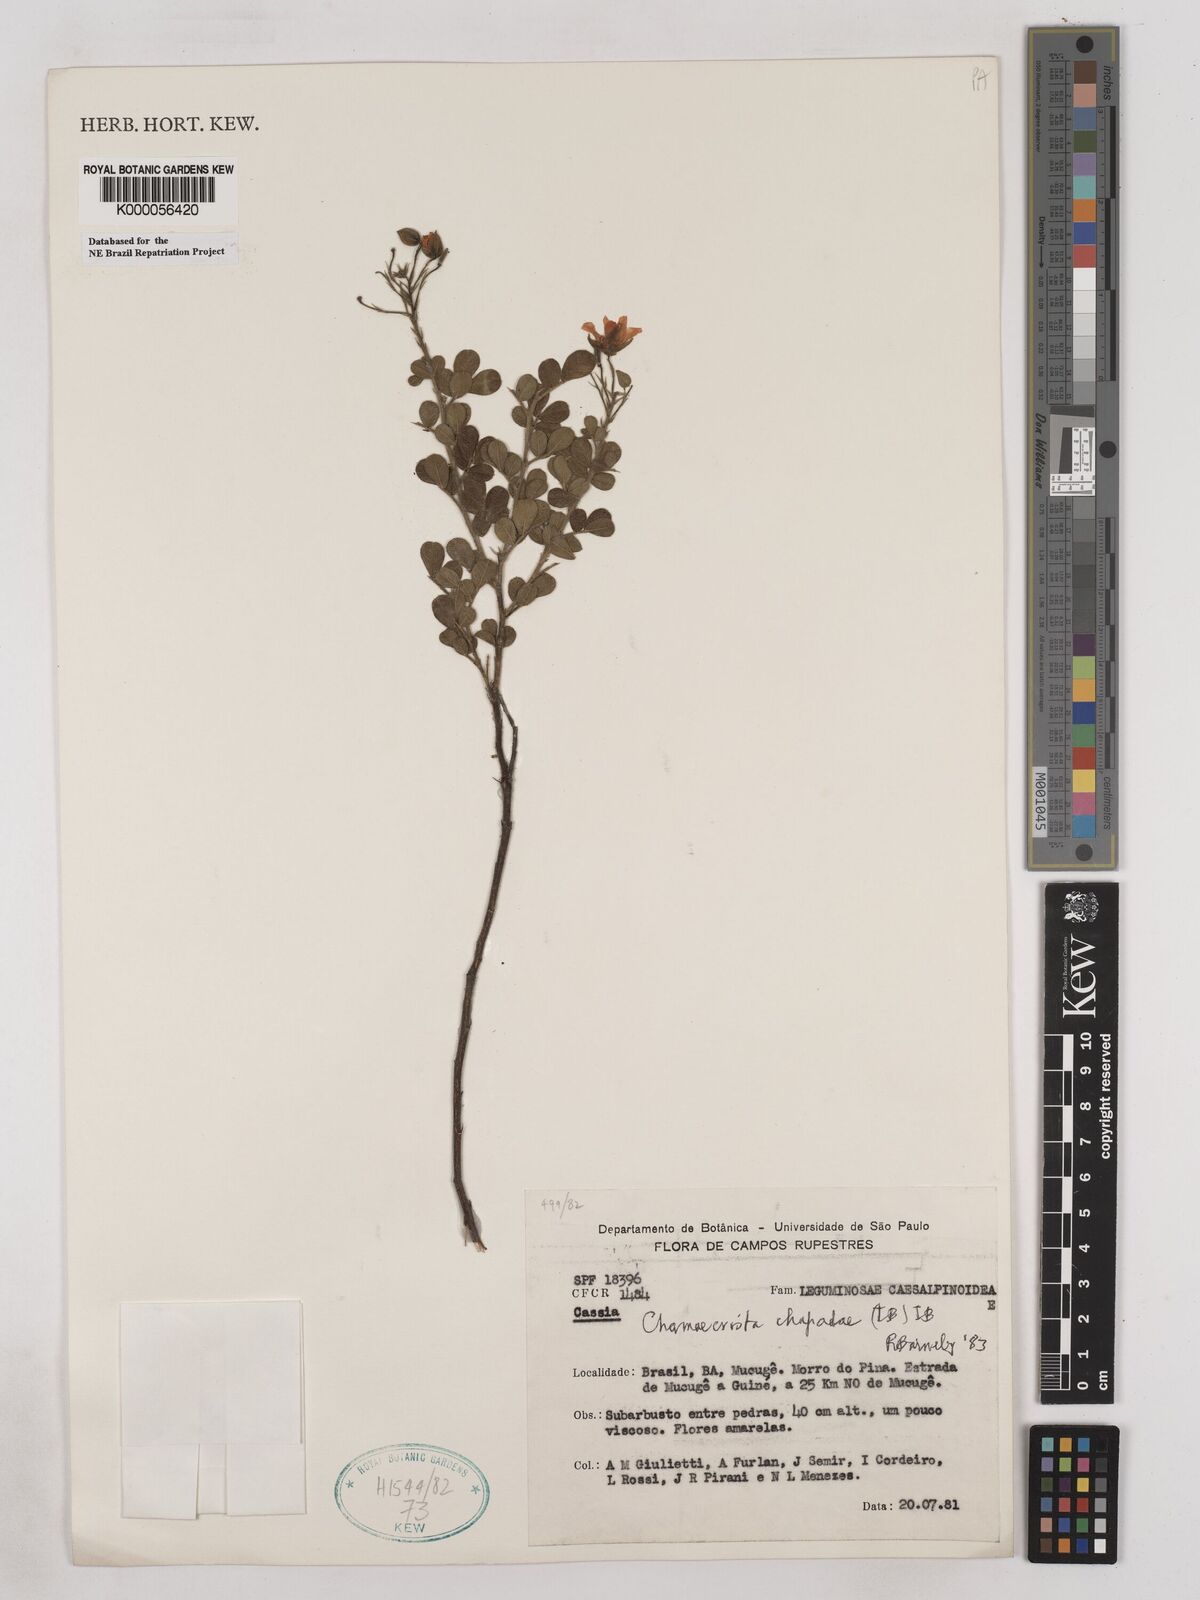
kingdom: Plantae
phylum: Tracheophyta
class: Magnoliopsida
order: Fabales
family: Fabaceae
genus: Chamaecrista
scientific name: Chamaecrista chapadae
